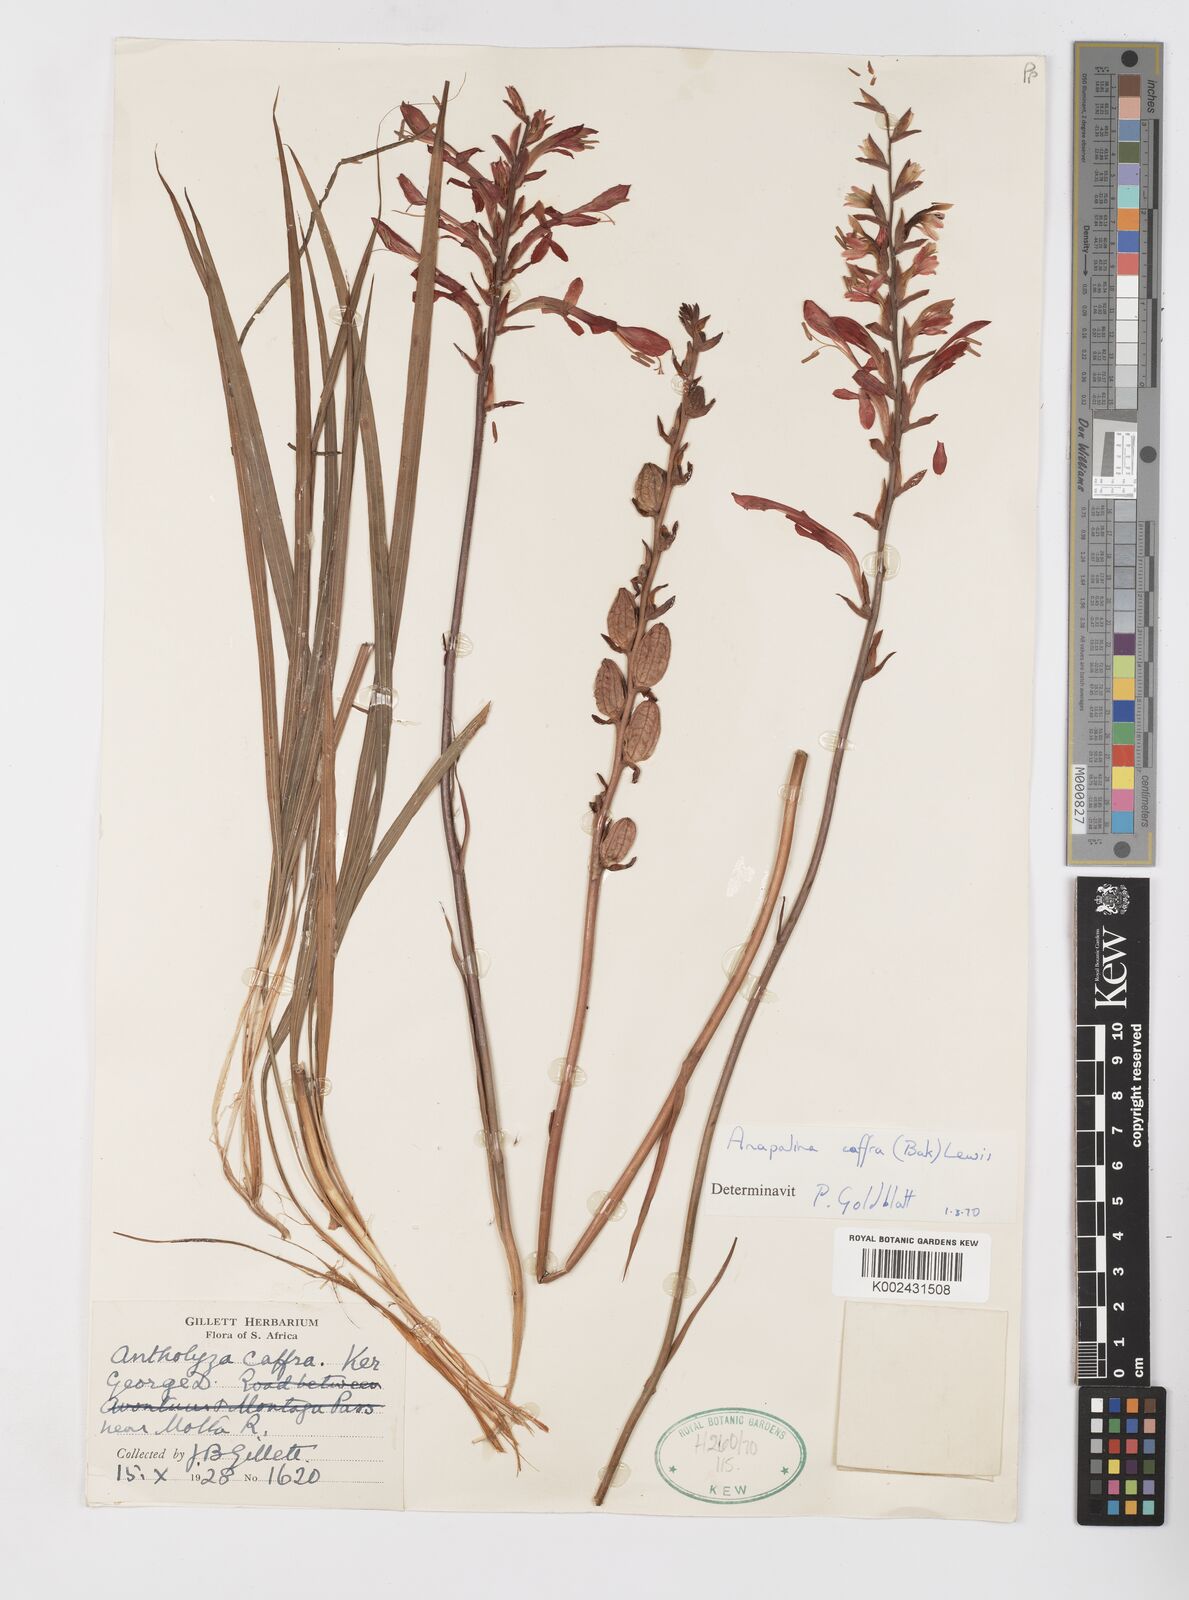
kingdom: Plantae
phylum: Tracheophyta
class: Liliopsida
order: Asparagales
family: Iridaceae
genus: Tritoniopsis
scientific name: Tritoniopsis caffra
